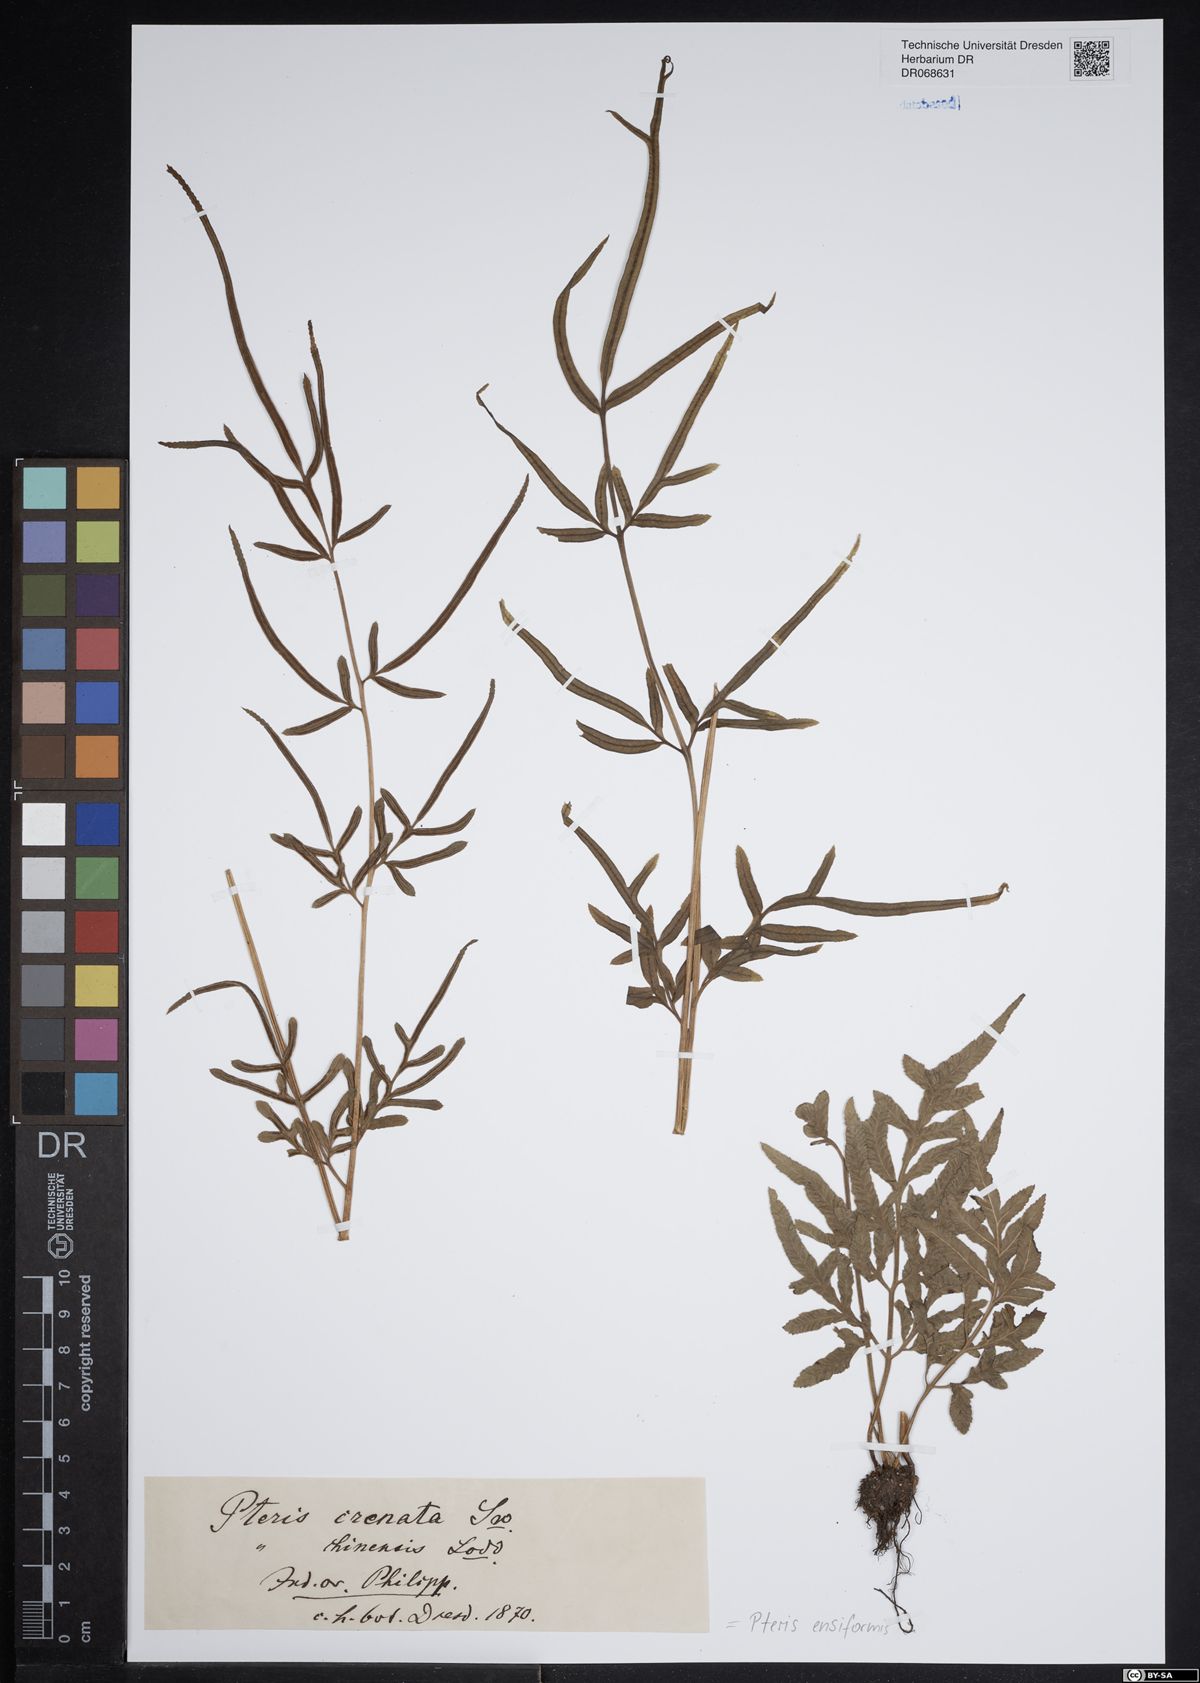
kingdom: Plantae
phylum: Tracheophyta
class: Polypodiopsida
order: Polypodiales
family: Pteridaceae
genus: Pteris
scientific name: Pteris ensiformis
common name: Sword brake
